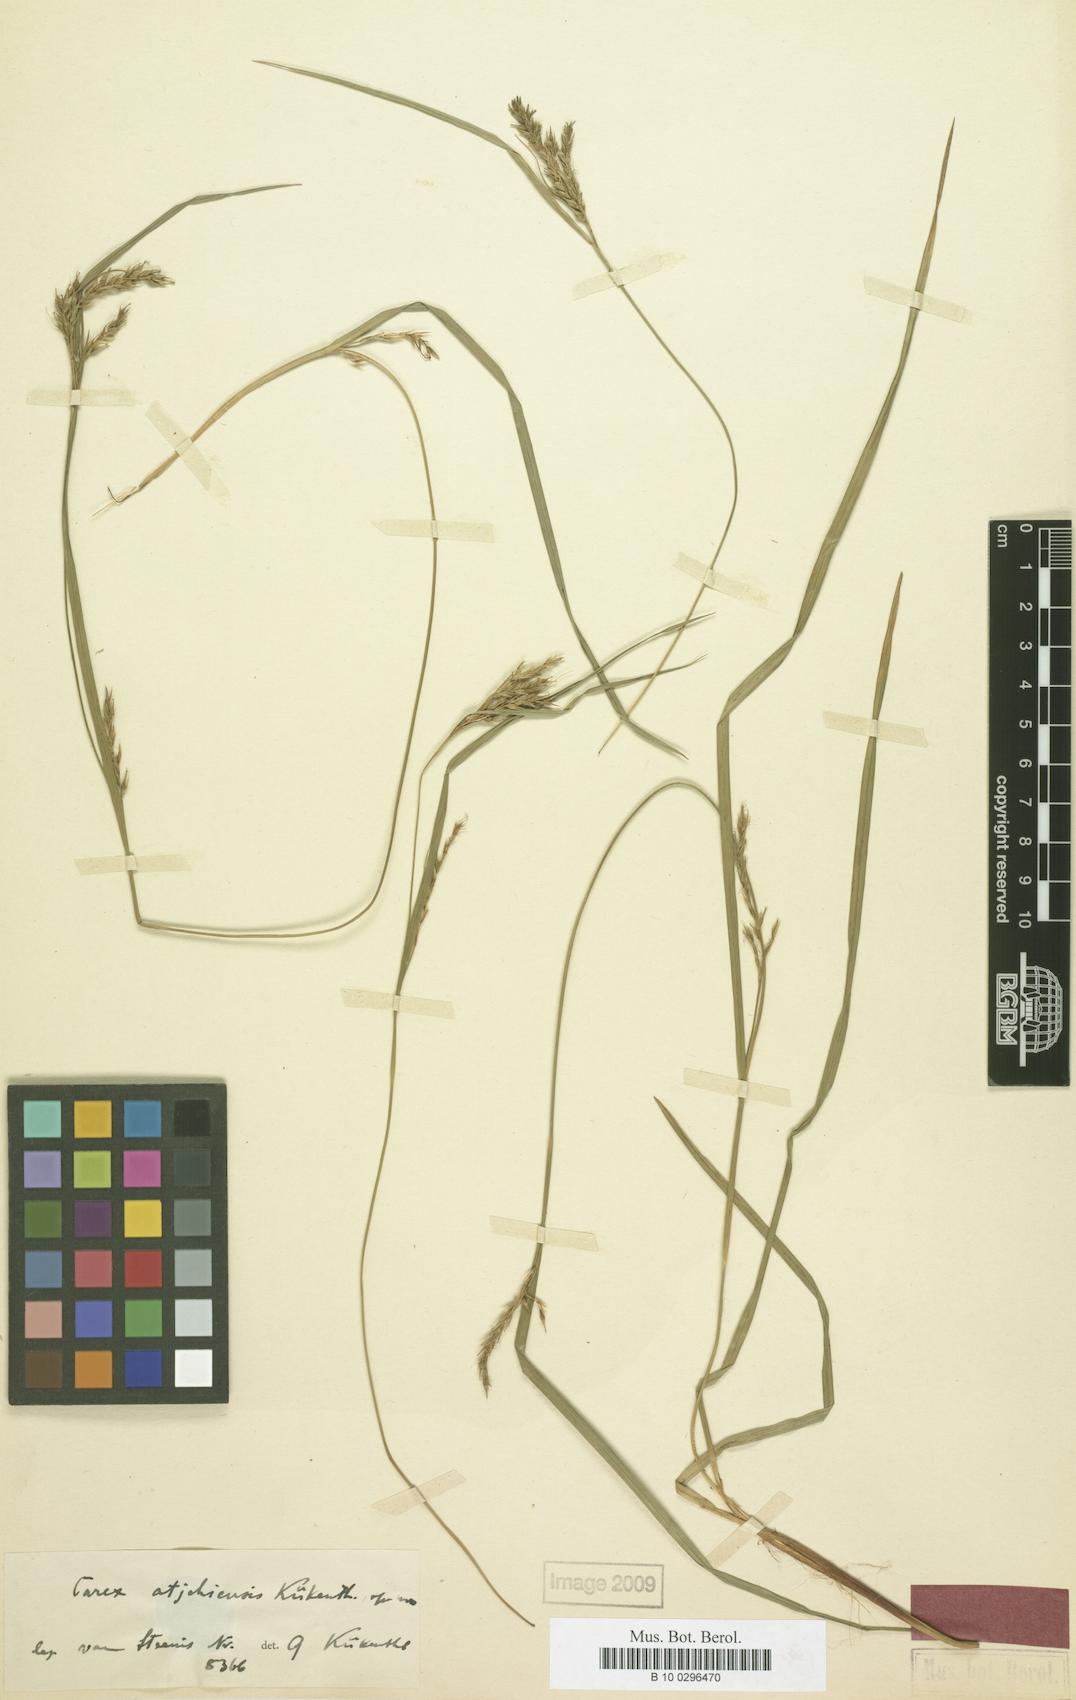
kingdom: Plantae
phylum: Tracheophyta
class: Liliopsida
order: Poales
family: Cyperaceae
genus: Carex
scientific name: Carex finitima
